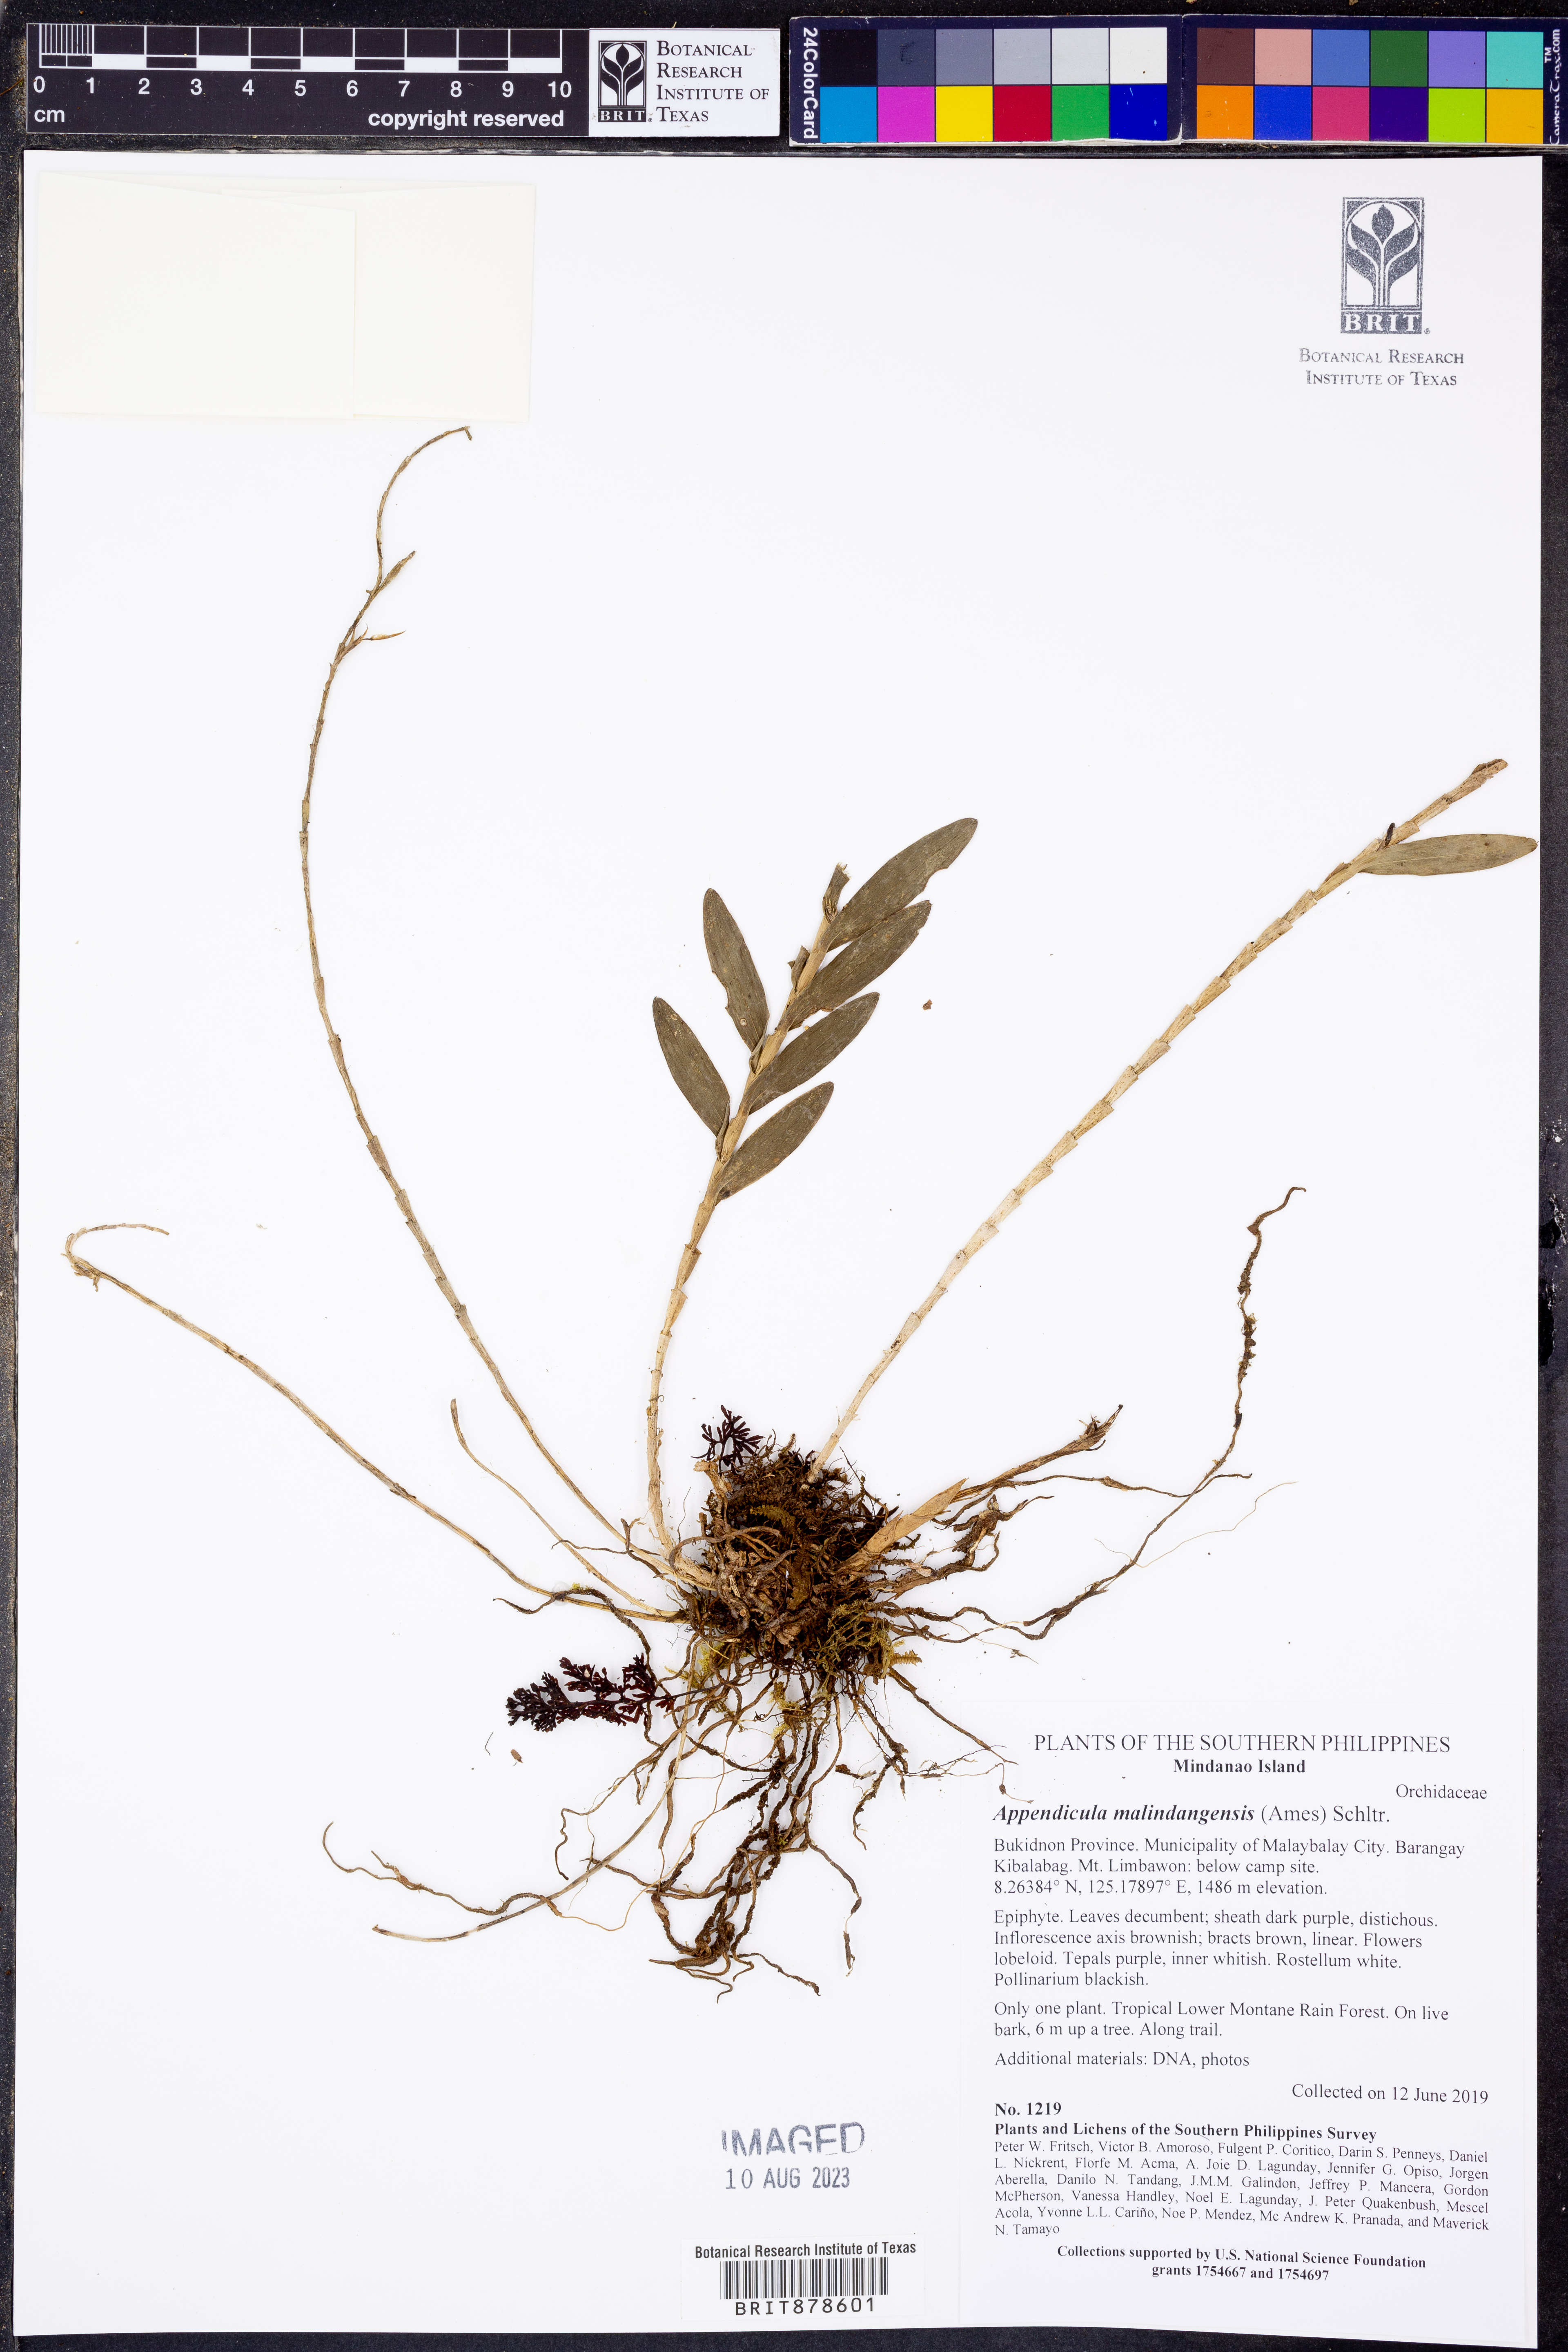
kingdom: Plantae
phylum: Tracheophyta
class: Liliopsida
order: Asparagales
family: Orchidaceae
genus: Appendicula
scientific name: Appendicula malindangensis
